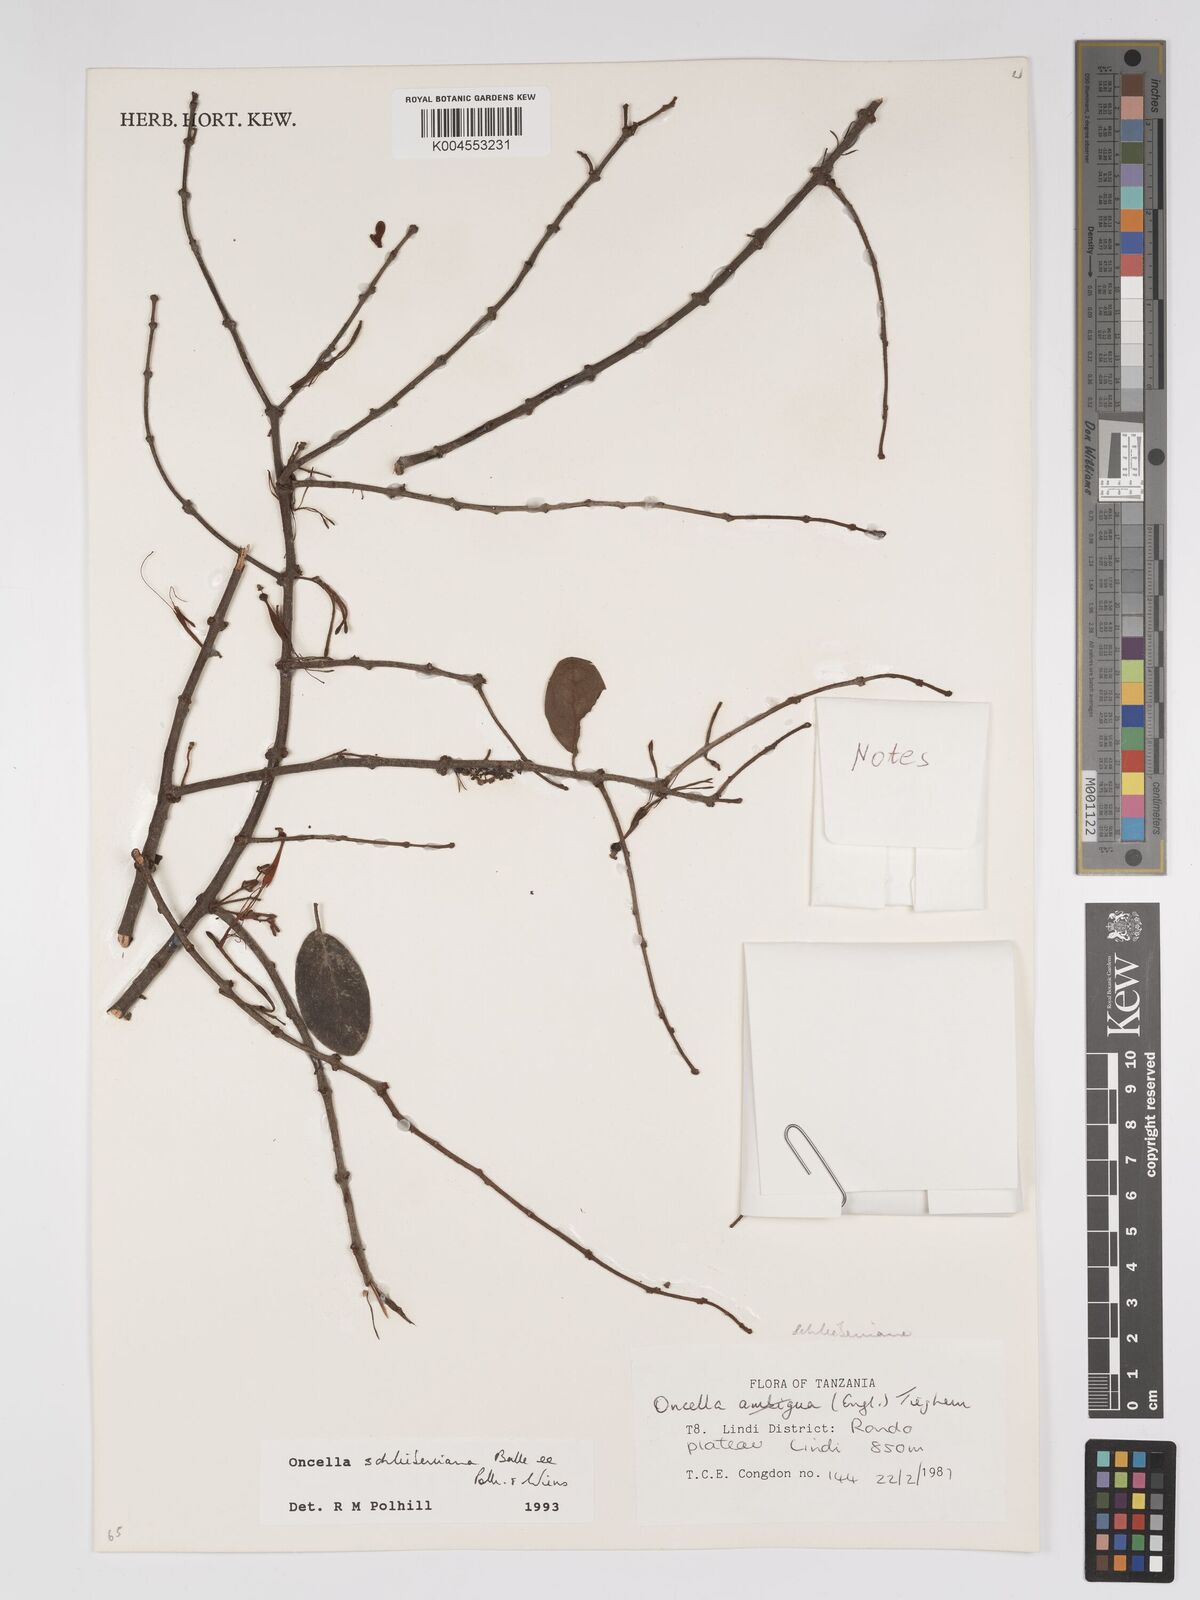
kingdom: Plantae
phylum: Tracheophyta
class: Magnoliopsida
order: Santalales
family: Loranthaceae
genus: Oncella
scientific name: Oncella schliebeniana
